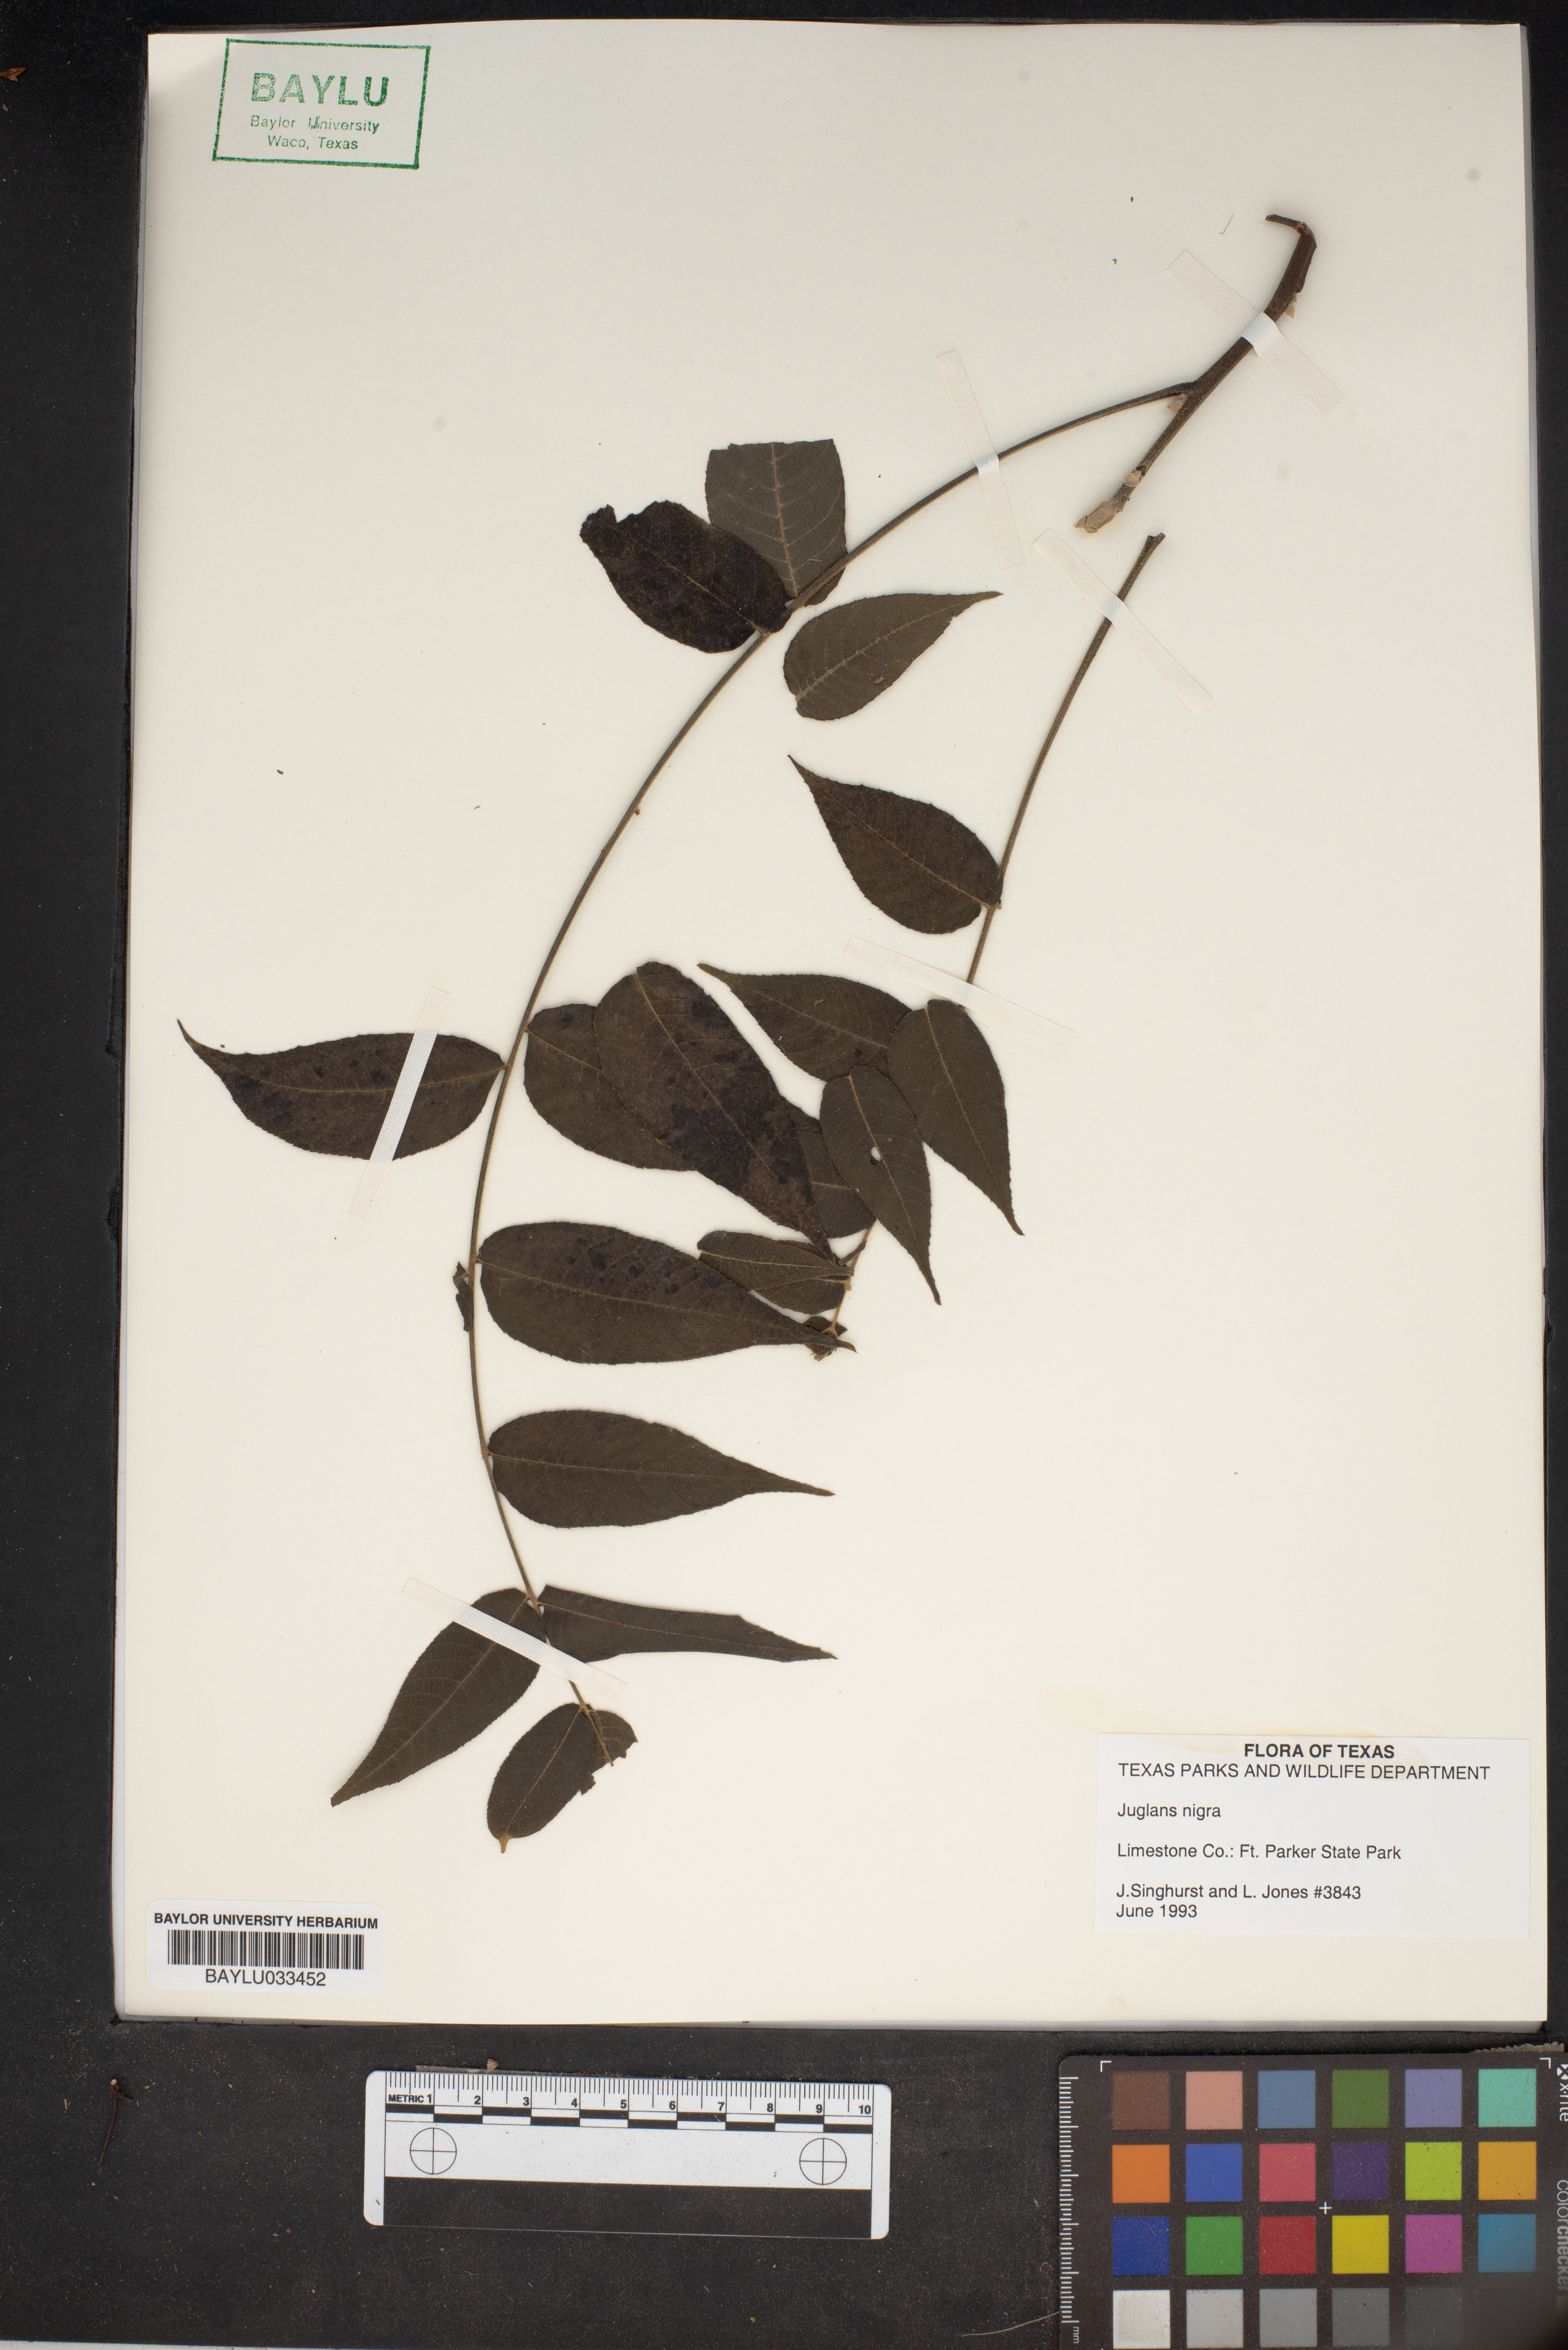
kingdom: Plantae
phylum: Tracheophyta
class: Magnoliopsida
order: Fagales
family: Juglandaceae
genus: Juglans
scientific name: Juglans nigra
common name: Black walnut
